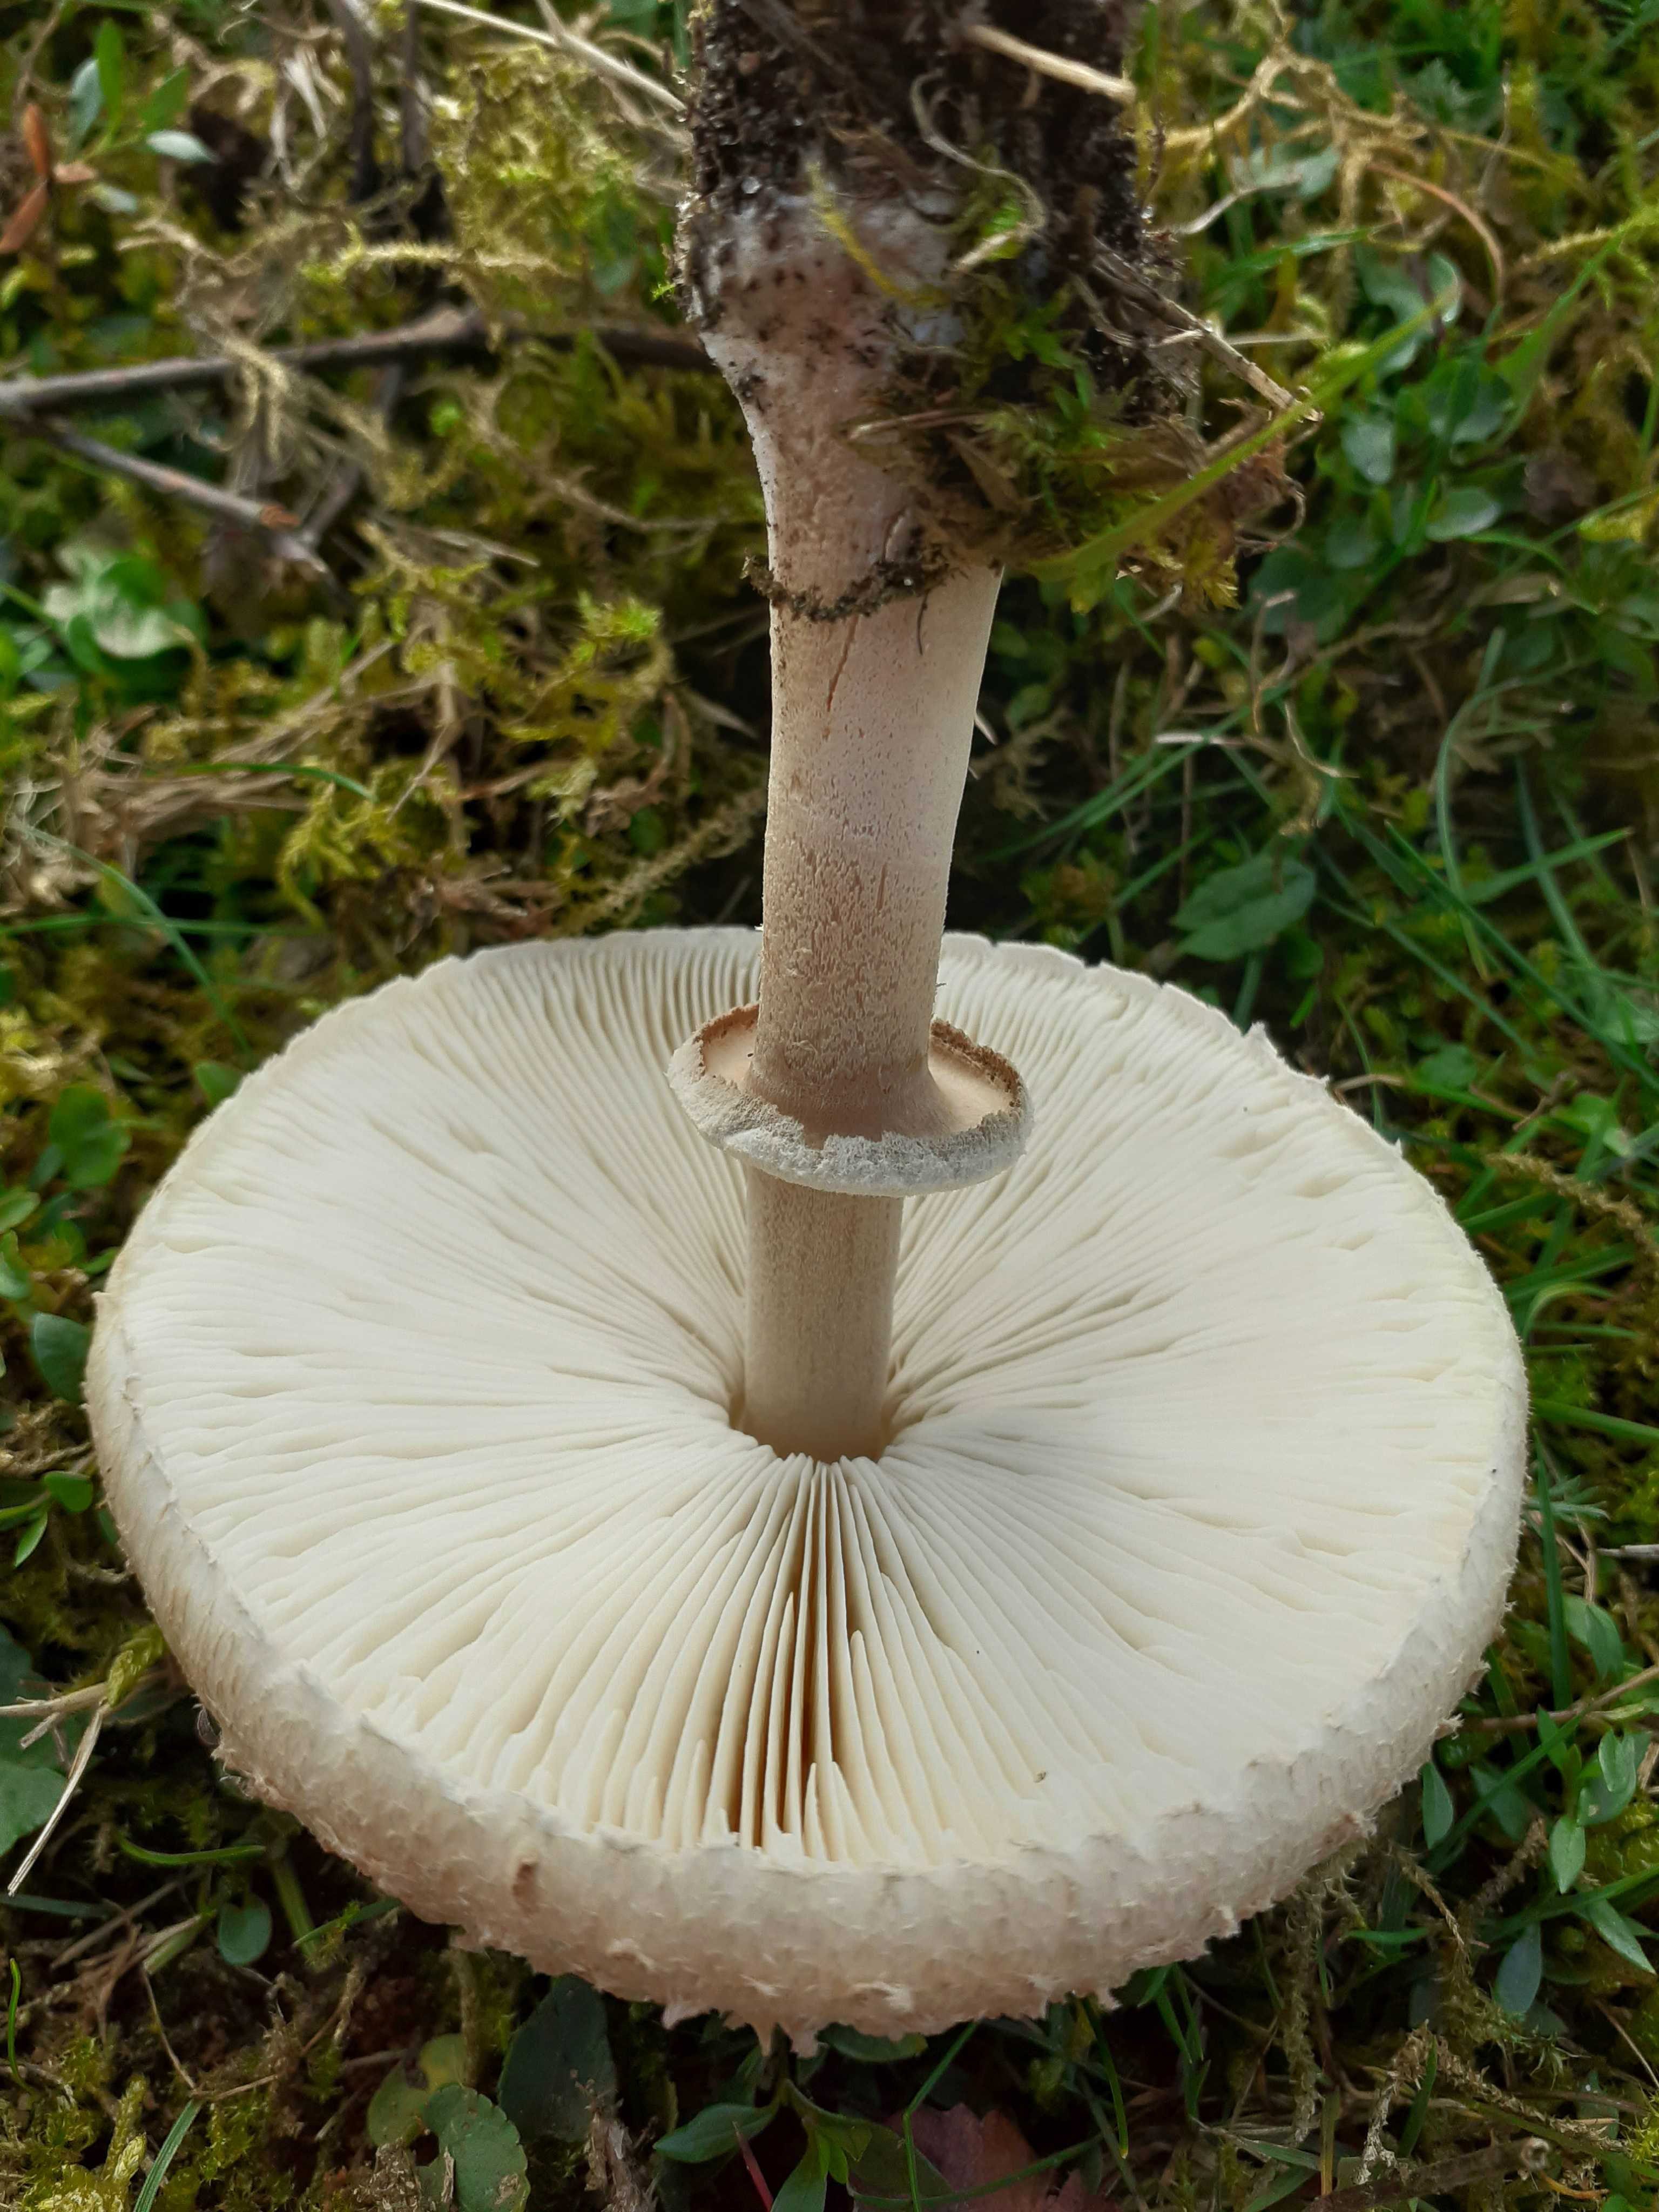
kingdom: Fungi
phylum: Basidiomycota
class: Agaricomycetes
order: Agaricales
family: Agaricaceae
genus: Macrolepiota
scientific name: Macrolepiota excoriata
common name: mark-kæmpeparasolhat
